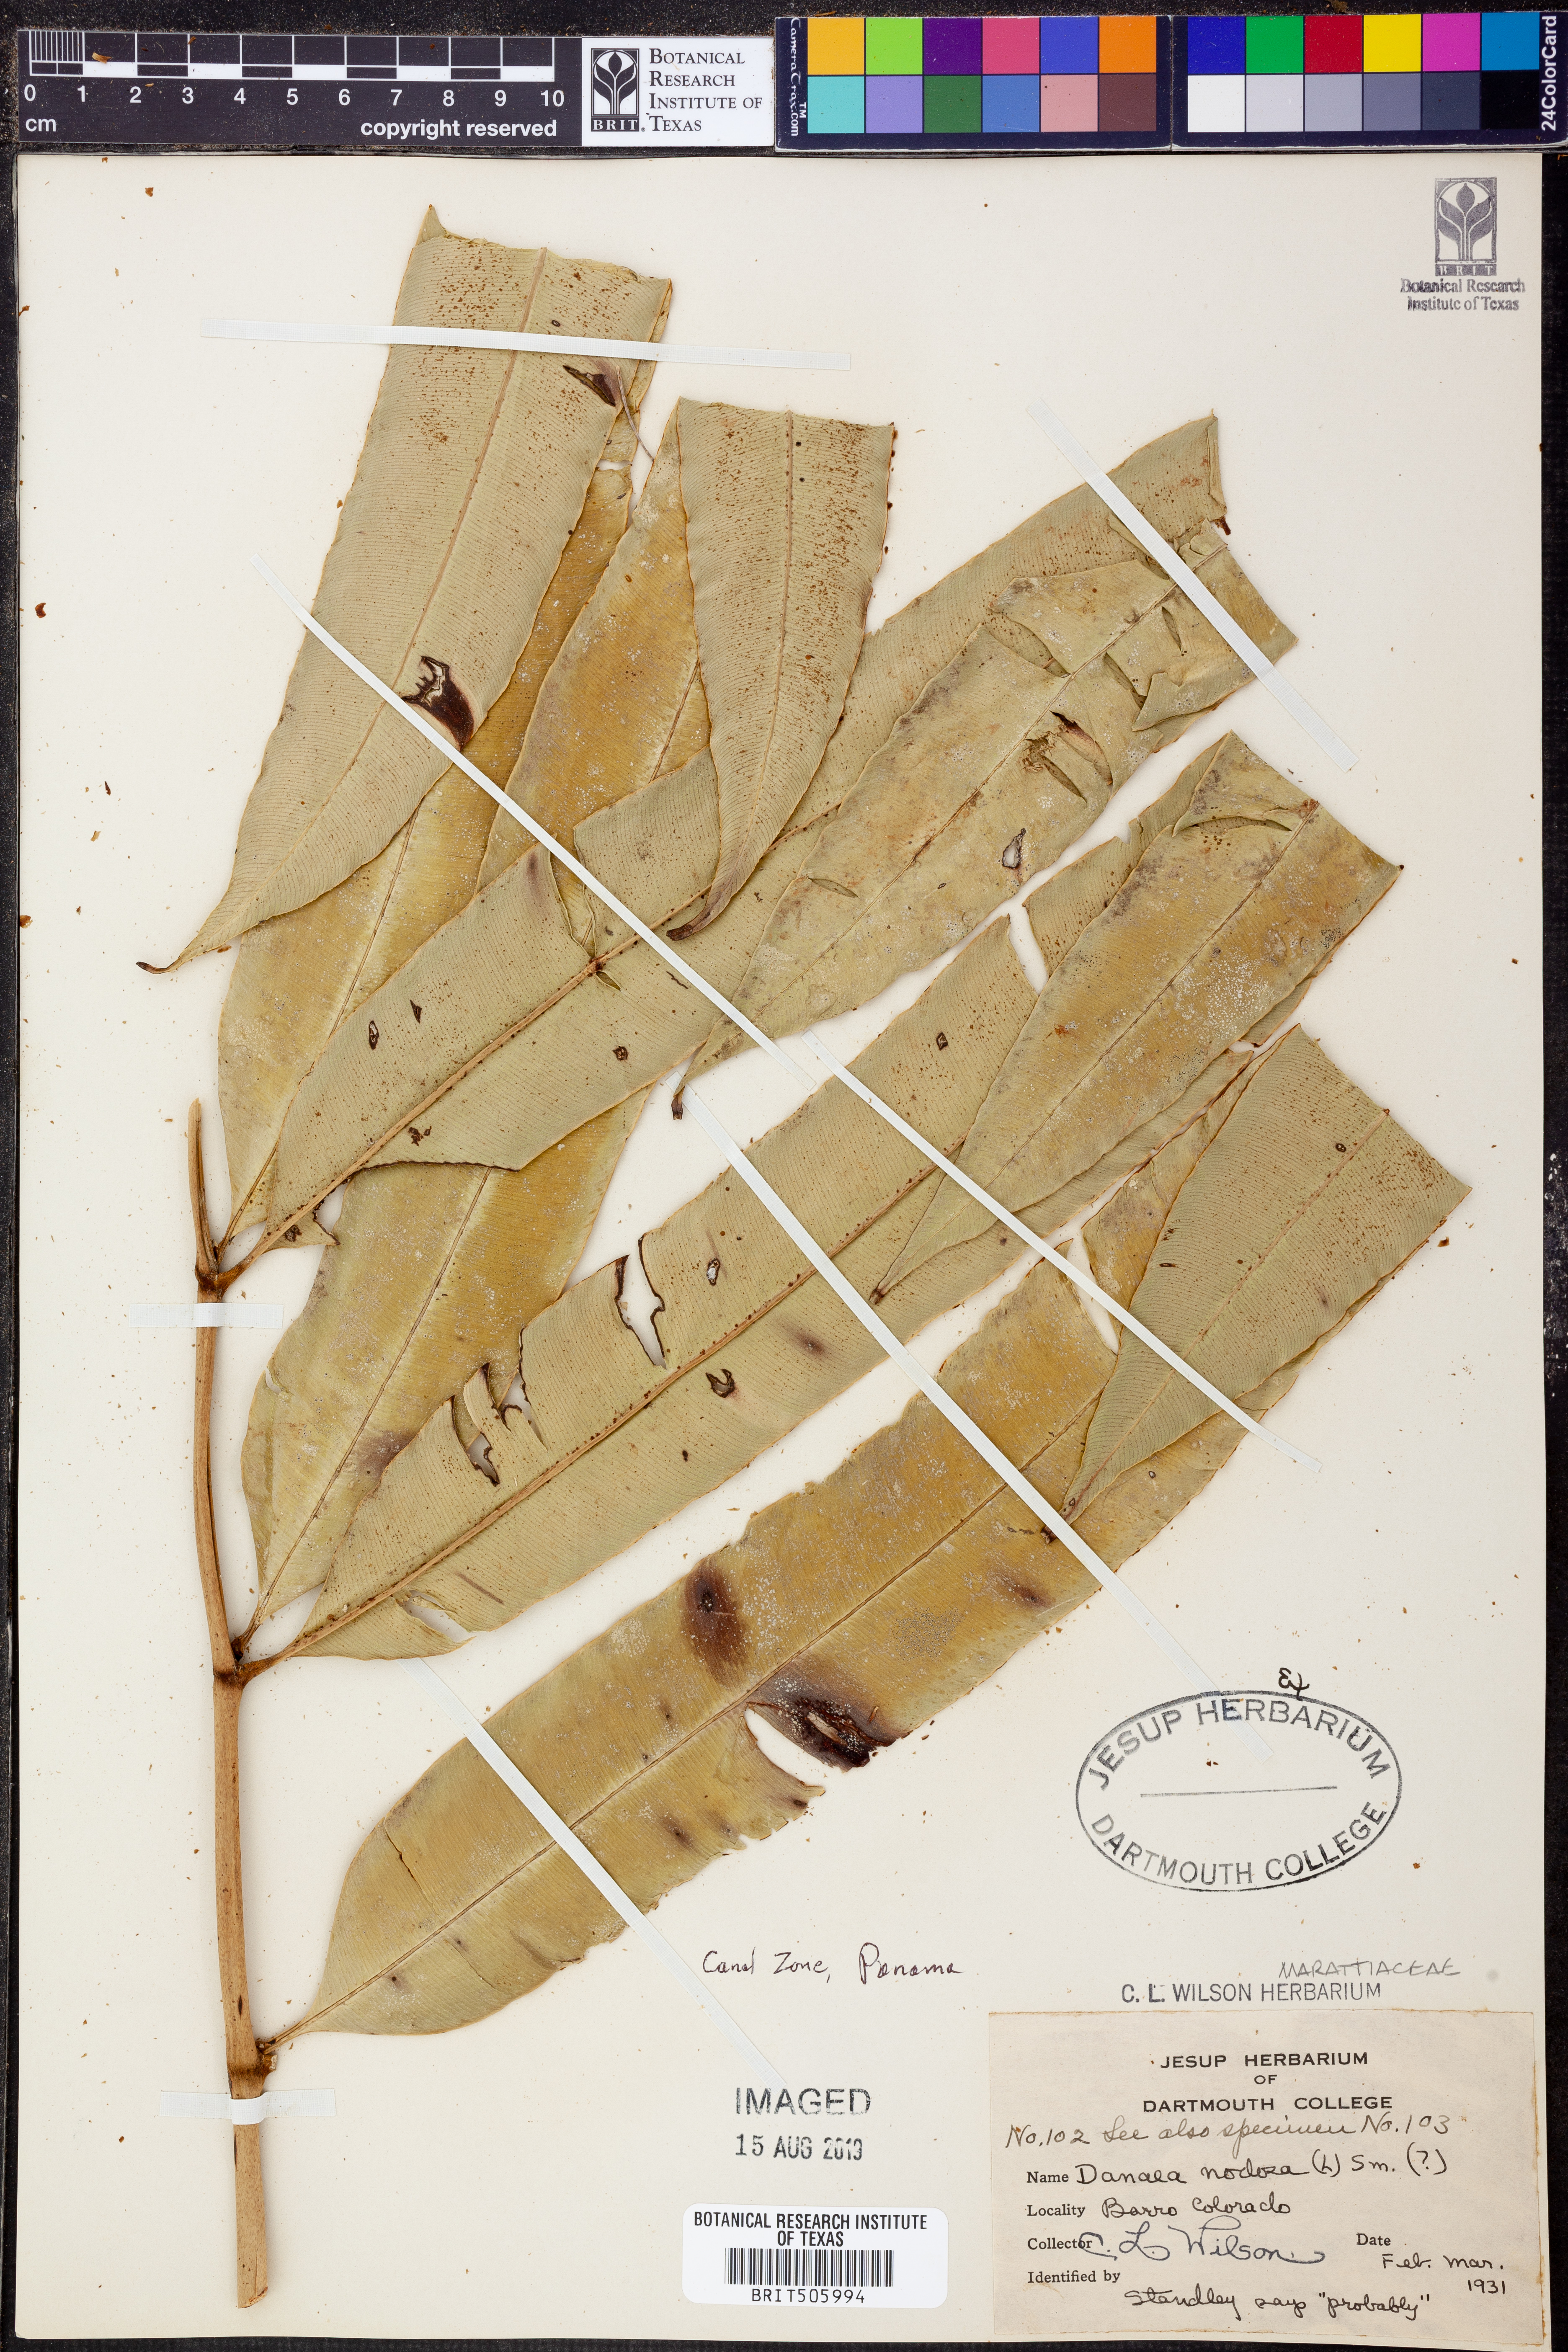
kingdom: Plantae
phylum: Tracheophyta
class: Polypodiopsida
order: Marattiales
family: Marattiaceae
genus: Danaea
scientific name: Danaea nodosa
